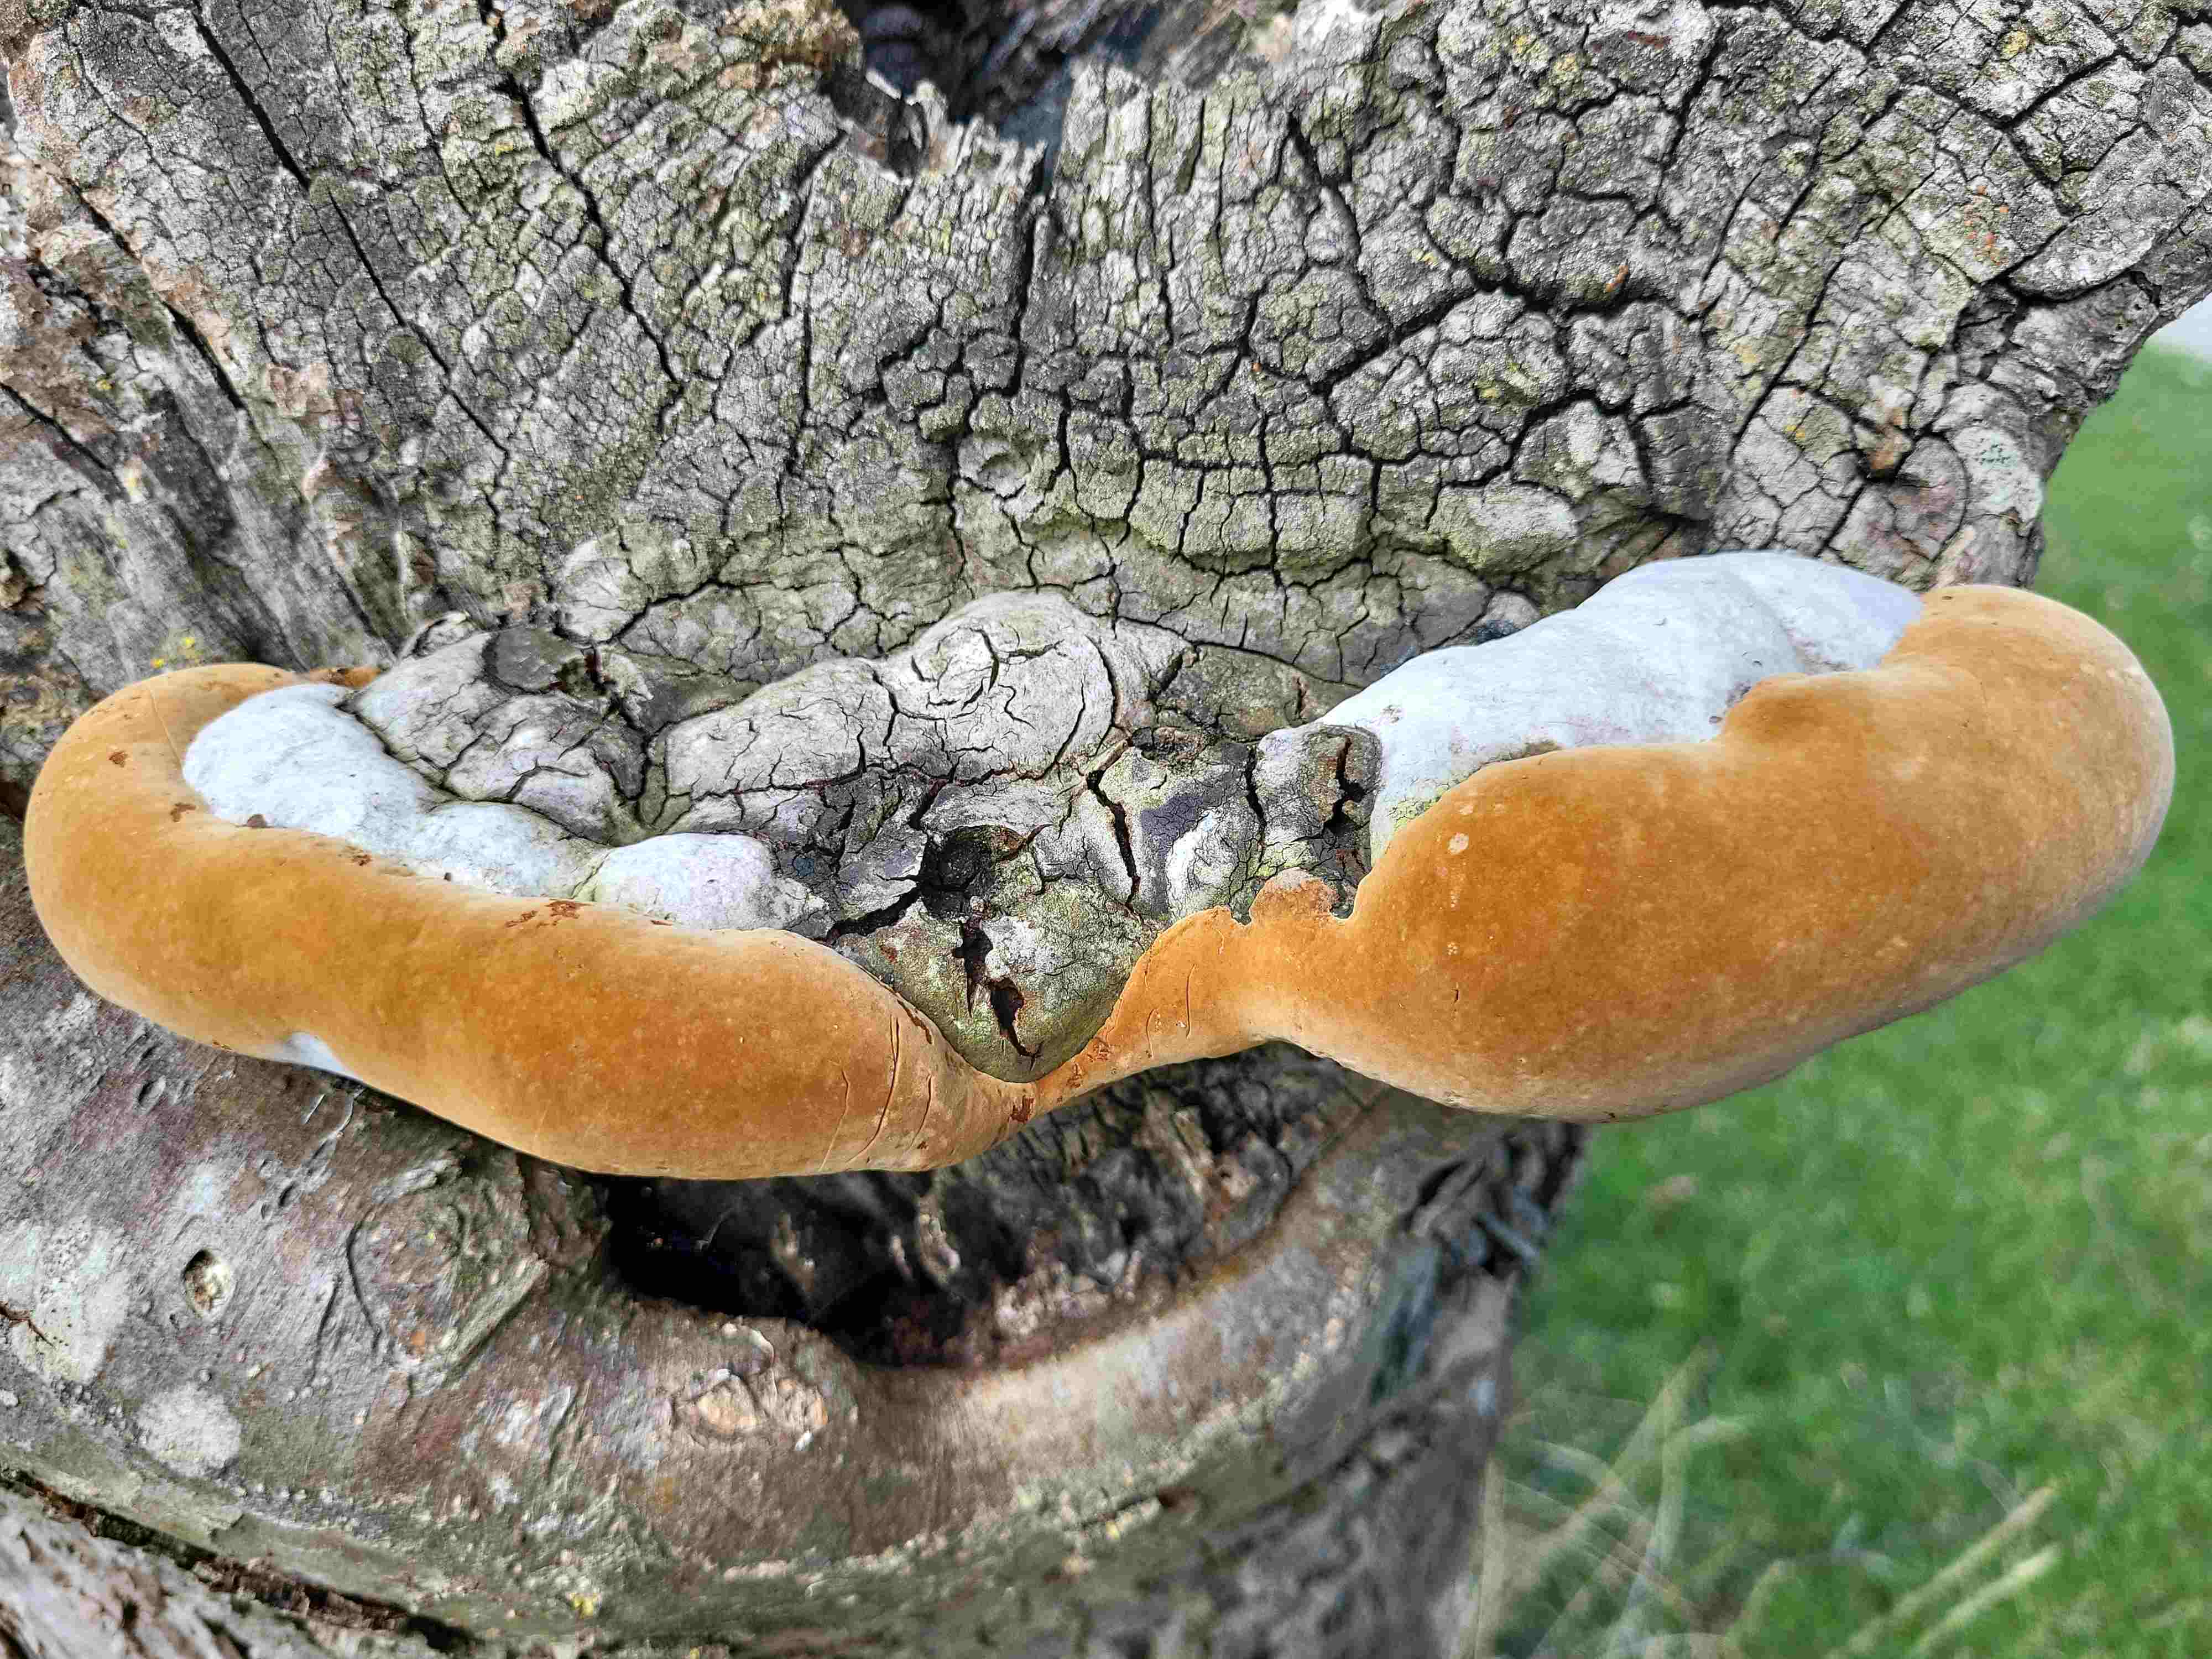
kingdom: Fungi
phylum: Basidiomycota
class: Agaricomycetes
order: Hymenochaetales
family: Hymenochaetaceae
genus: Phellinus
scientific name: Phellinus pomaceus
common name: blomme-ildporesvamp
